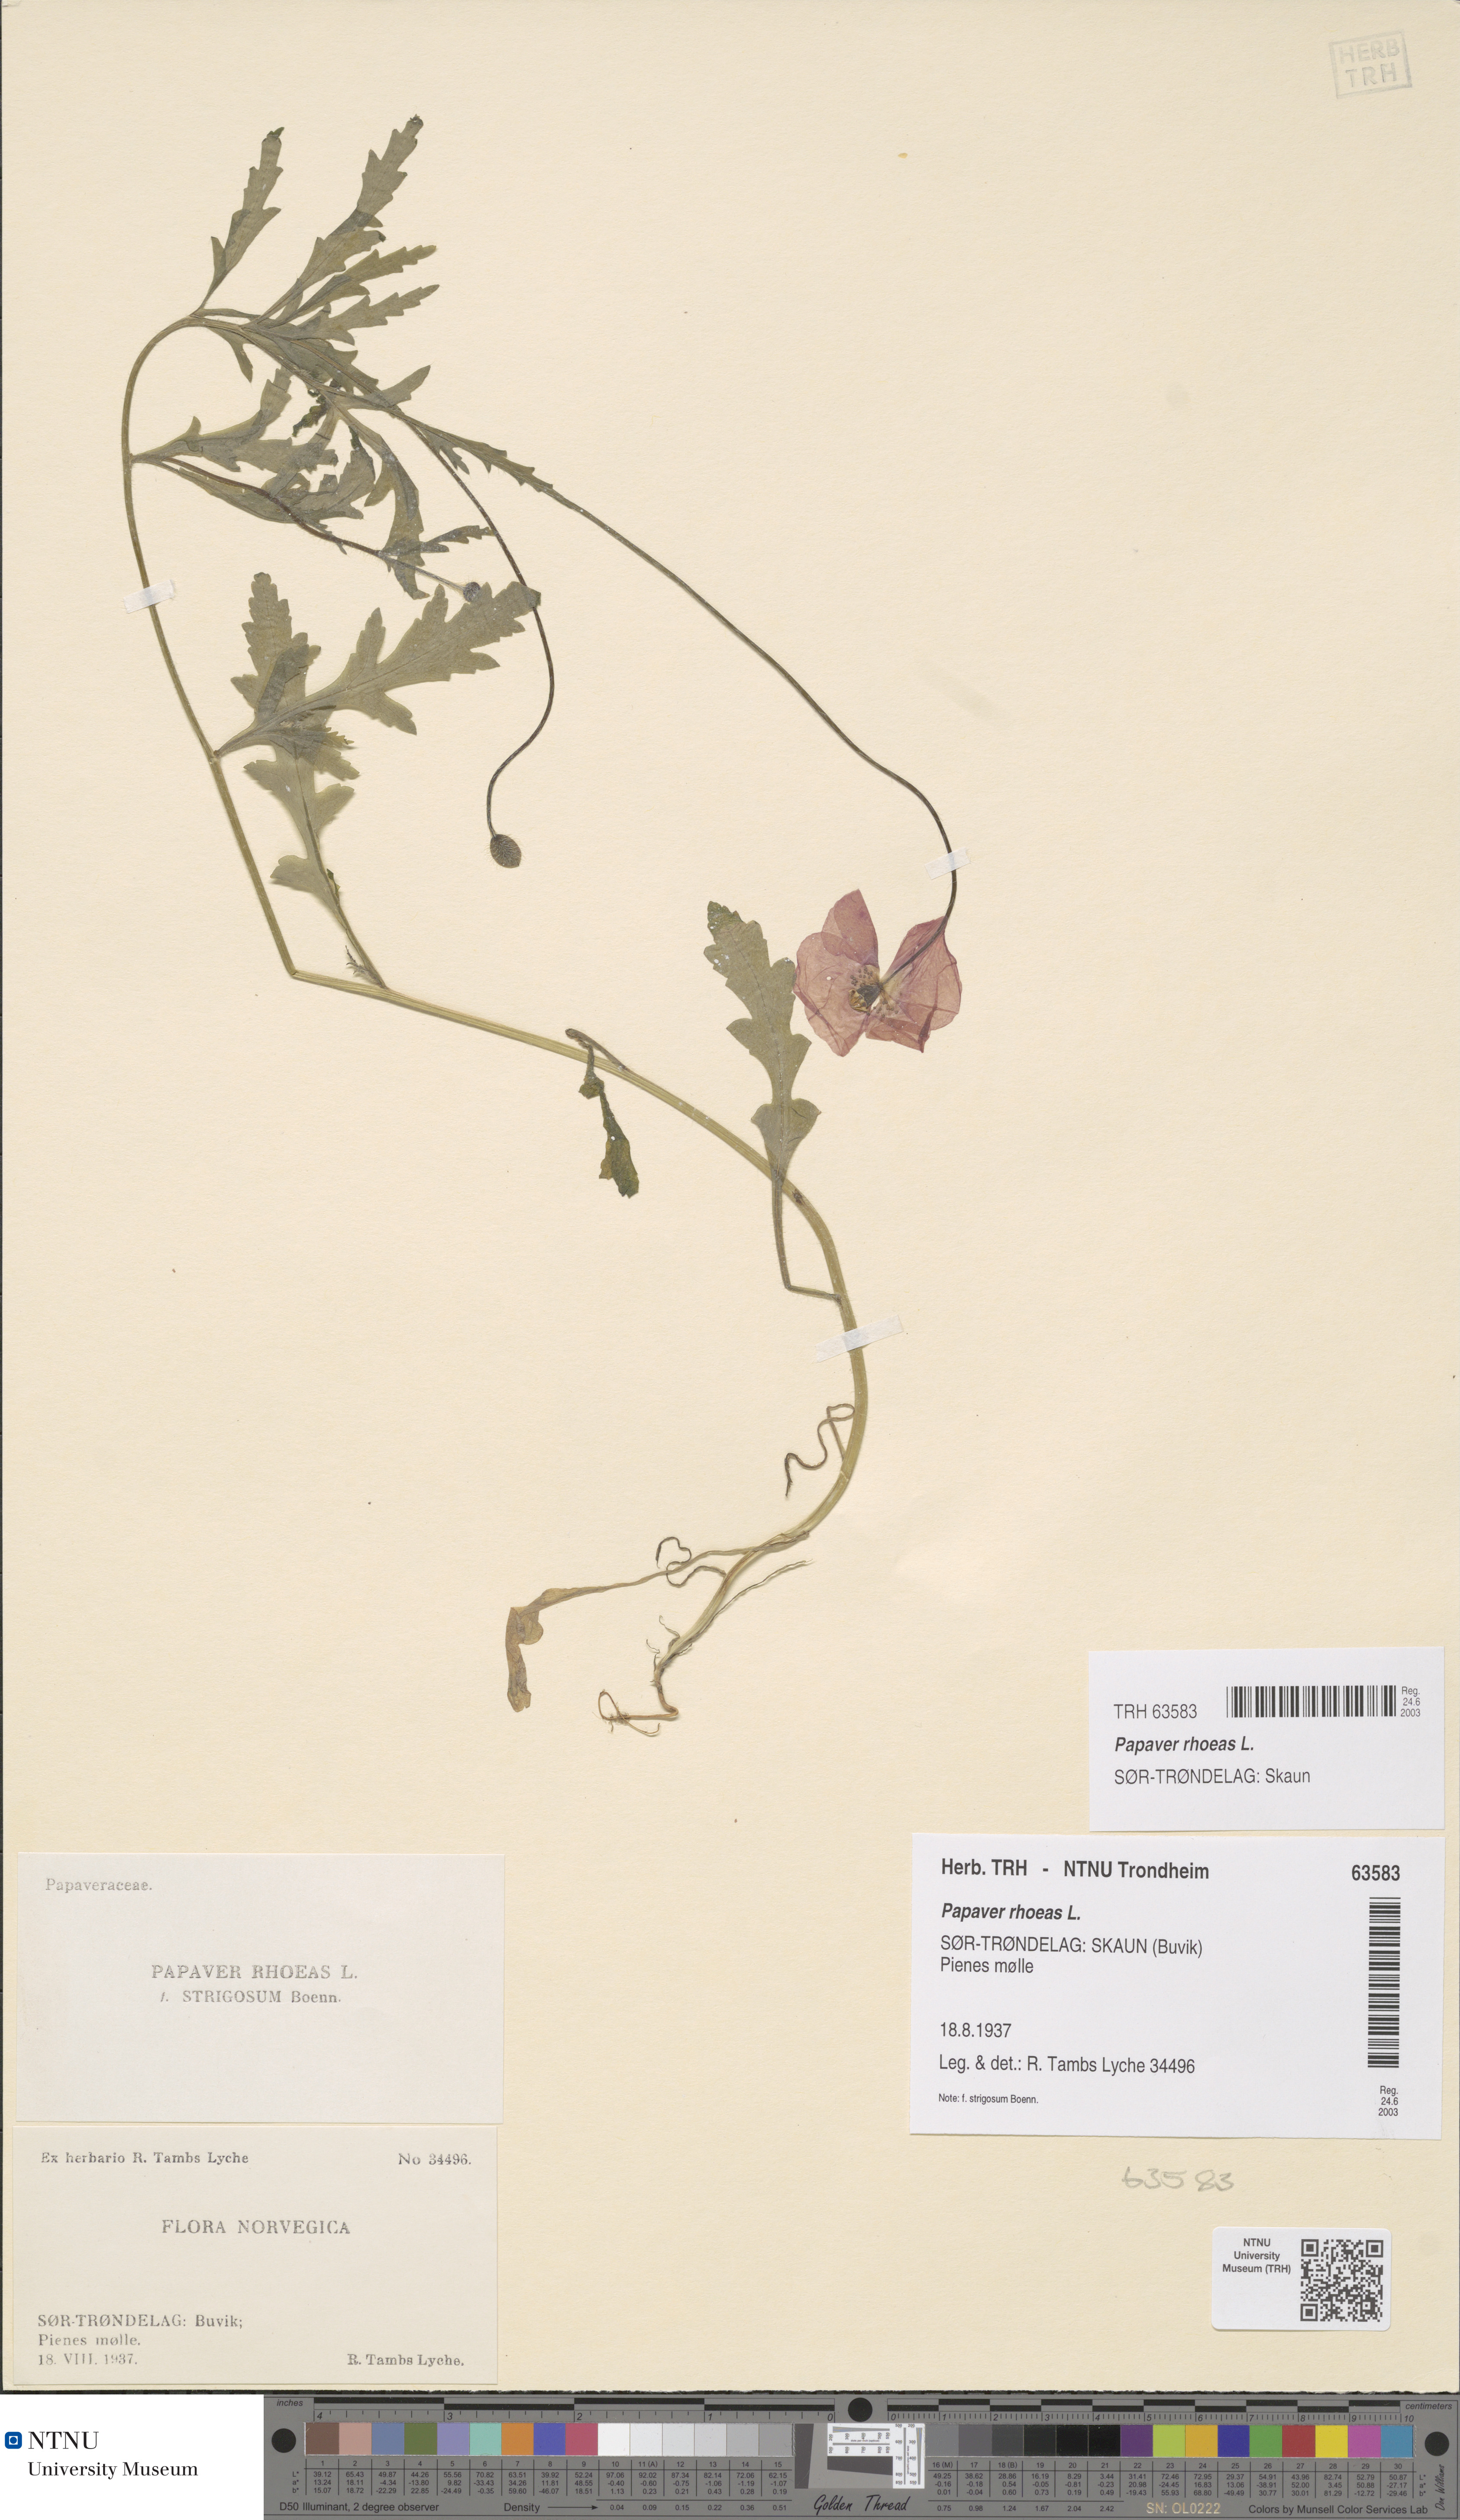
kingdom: Plantae
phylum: Tracheophyta
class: Magnoliopsida
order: Ranunculales
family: Papaveraceae
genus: Papaver
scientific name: Papaver rhoeas
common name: Corn poppy
